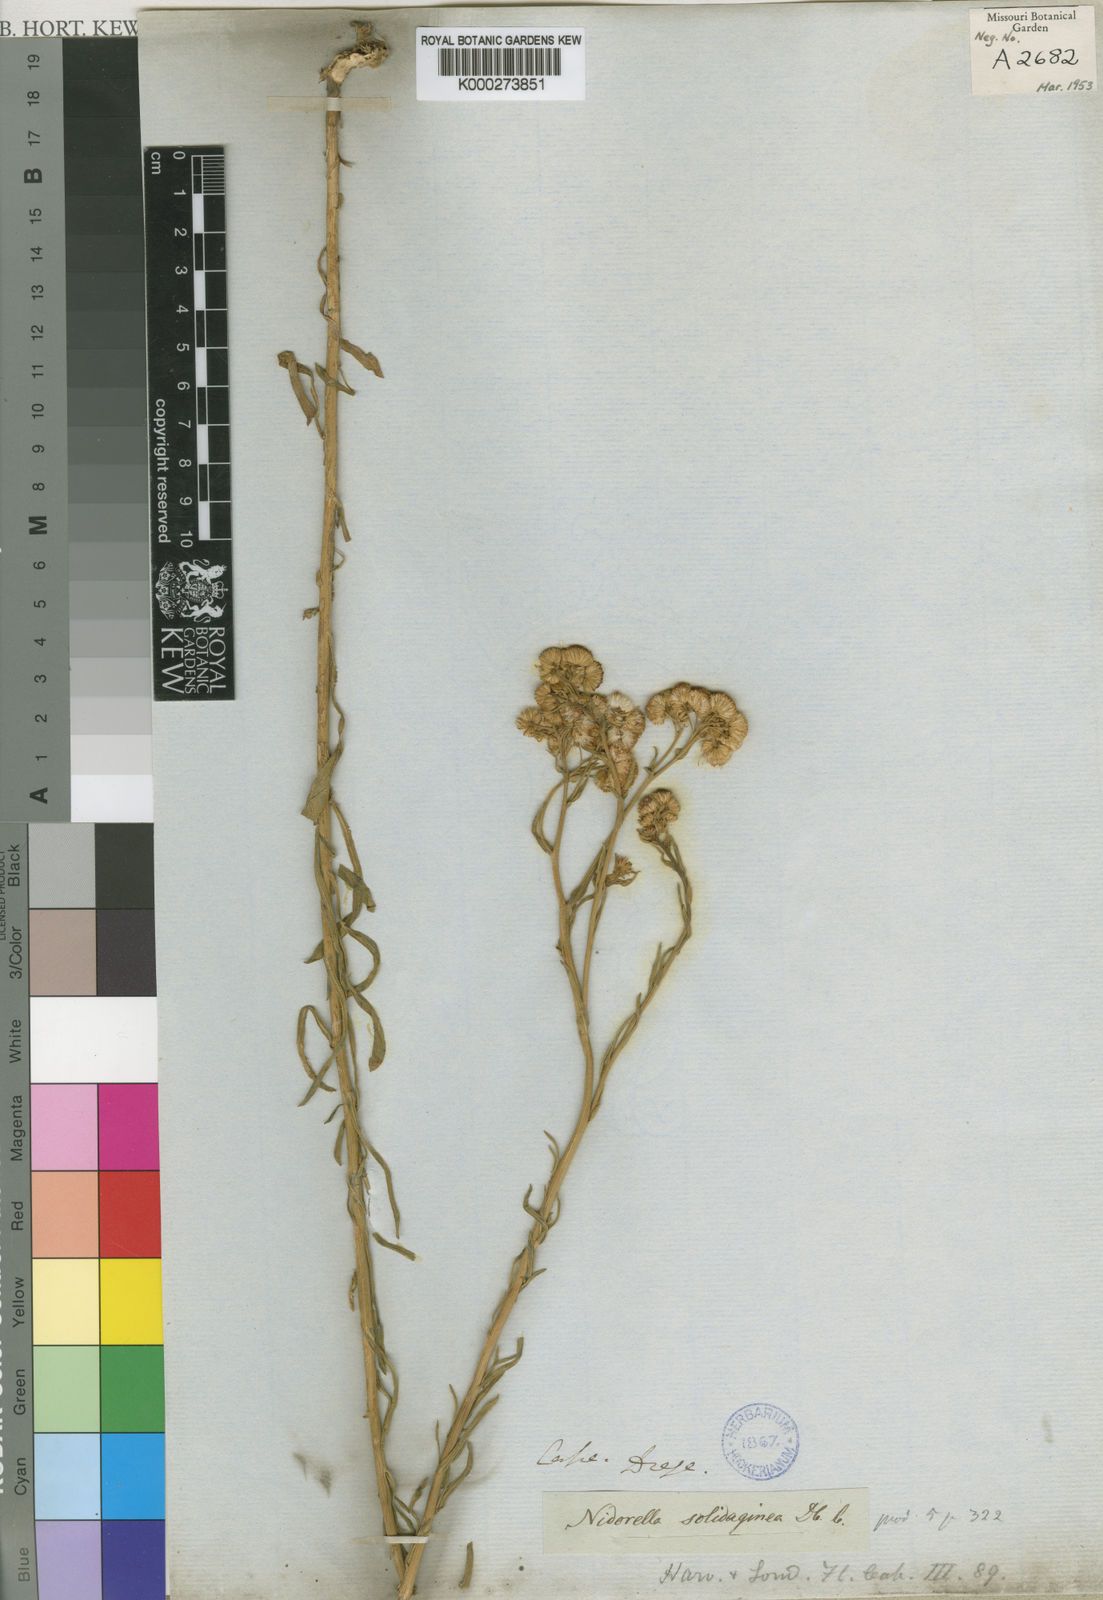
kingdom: Plantae
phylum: Tracheophyta
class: Magnoliopsida
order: Asterales
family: Asteraceae
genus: Nidorella
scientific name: Nidorella resedifolia
